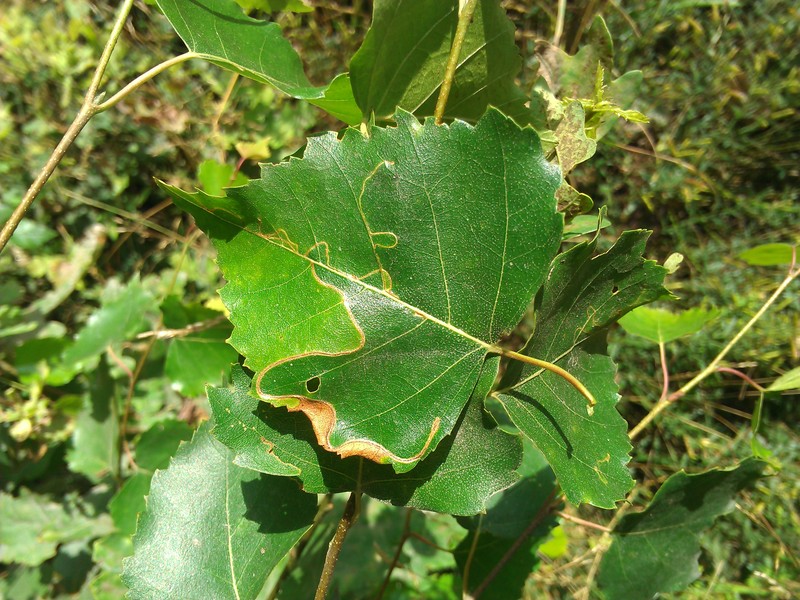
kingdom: Animalia
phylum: Arthropoda
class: Insecta
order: Lepidoptera
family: Lyonetiidae
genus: Lyonetia
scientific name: Lyonetia clerkella
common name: Apple leaf miner
